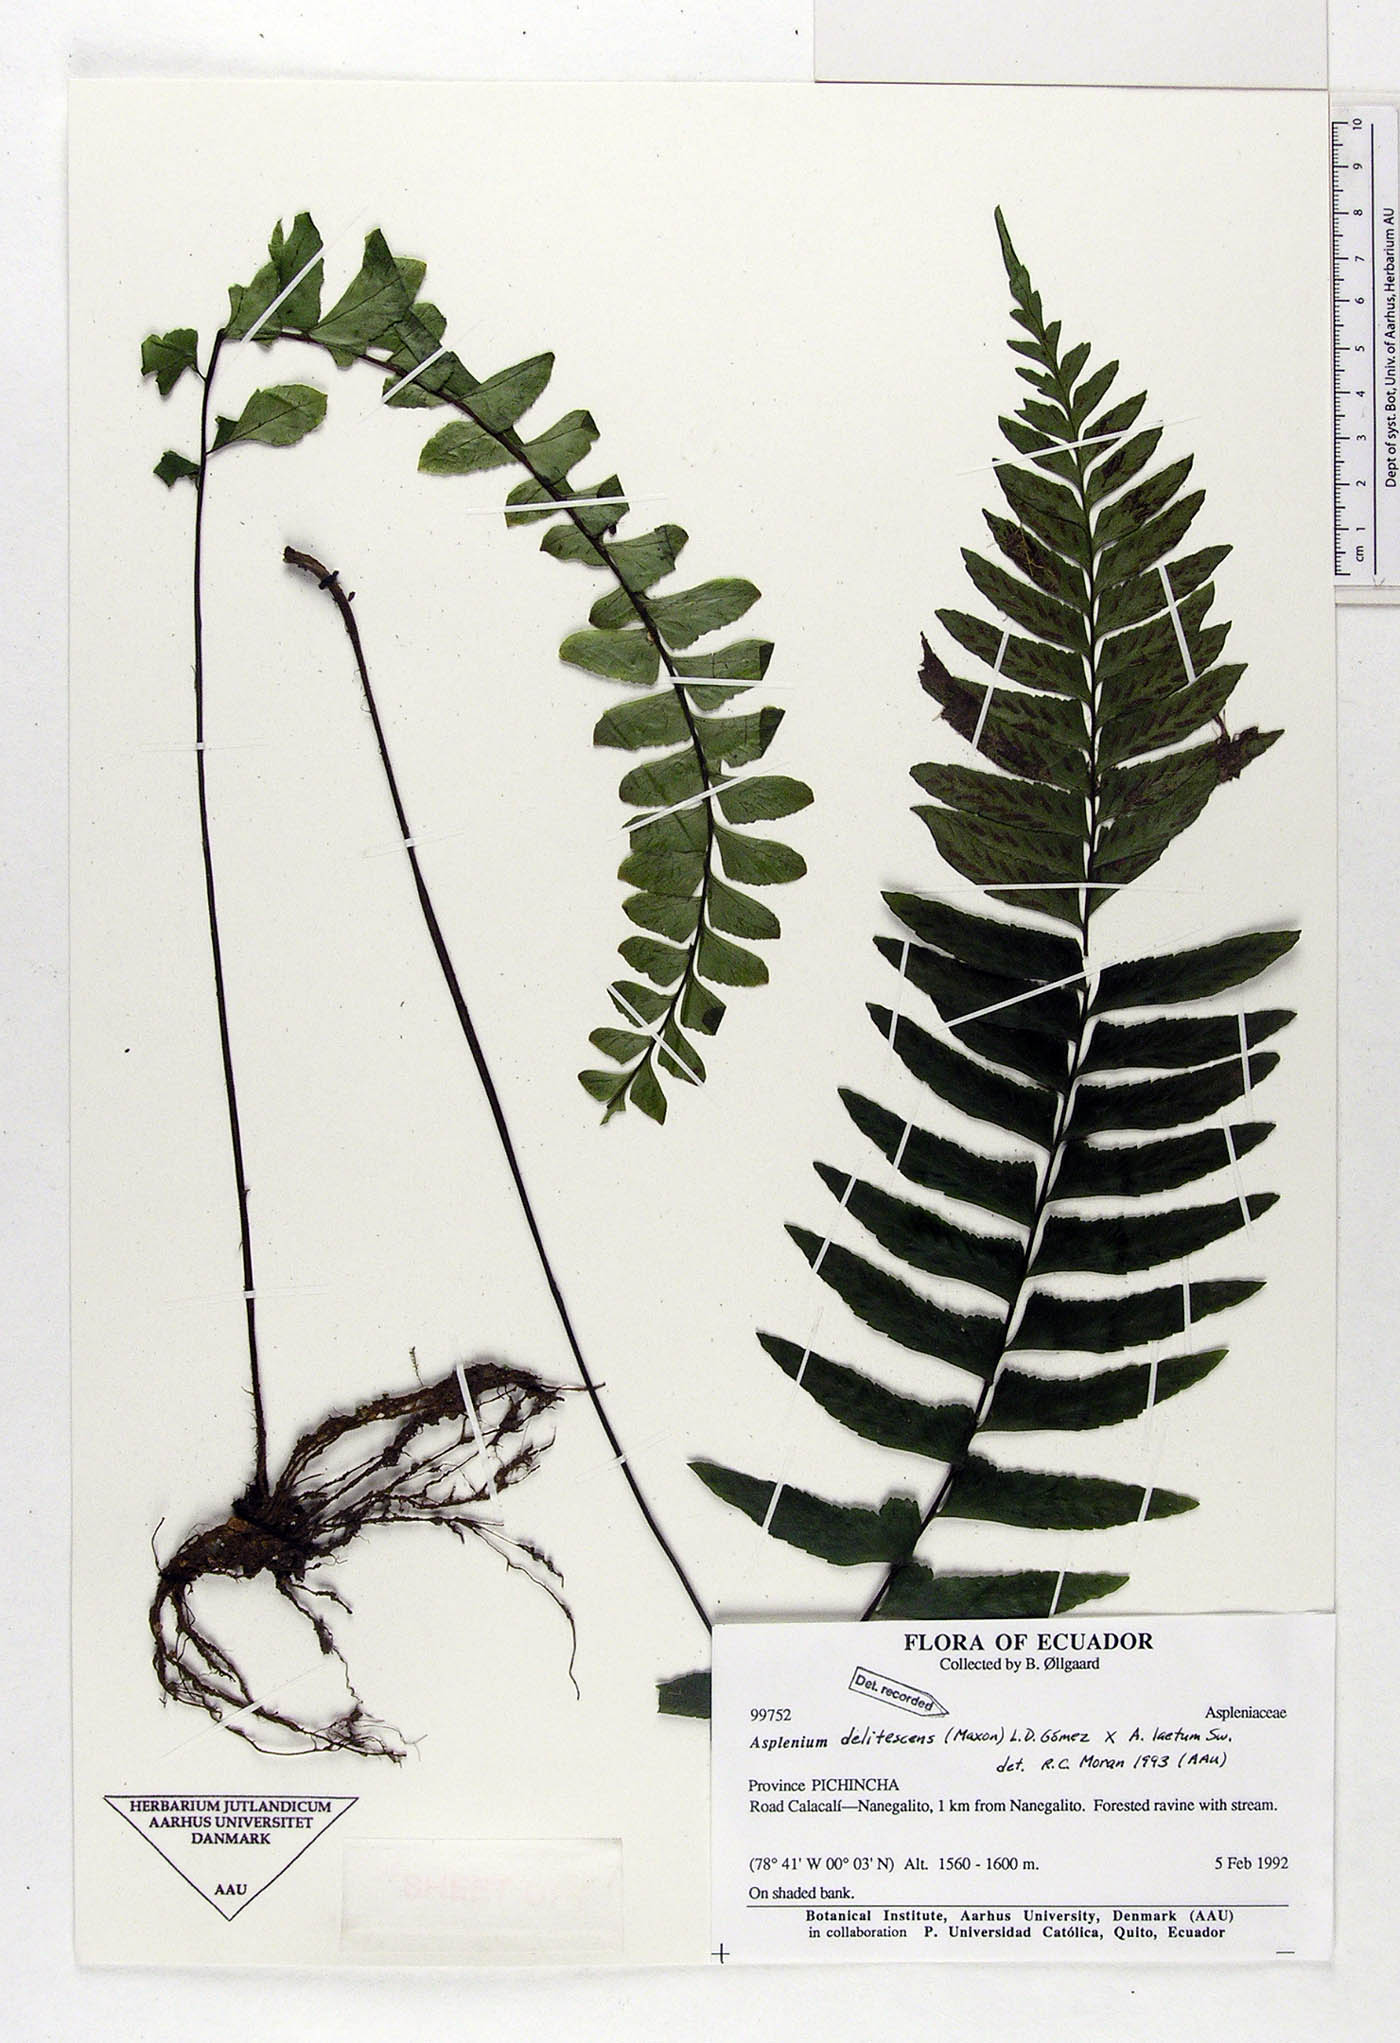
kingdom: Plantae
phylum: Tracheophyta
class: Polypodiopsida
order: Polypodiales
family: Aspleniaceae
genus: Hymenasplenium
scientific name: Hymenasplenium delitescens
